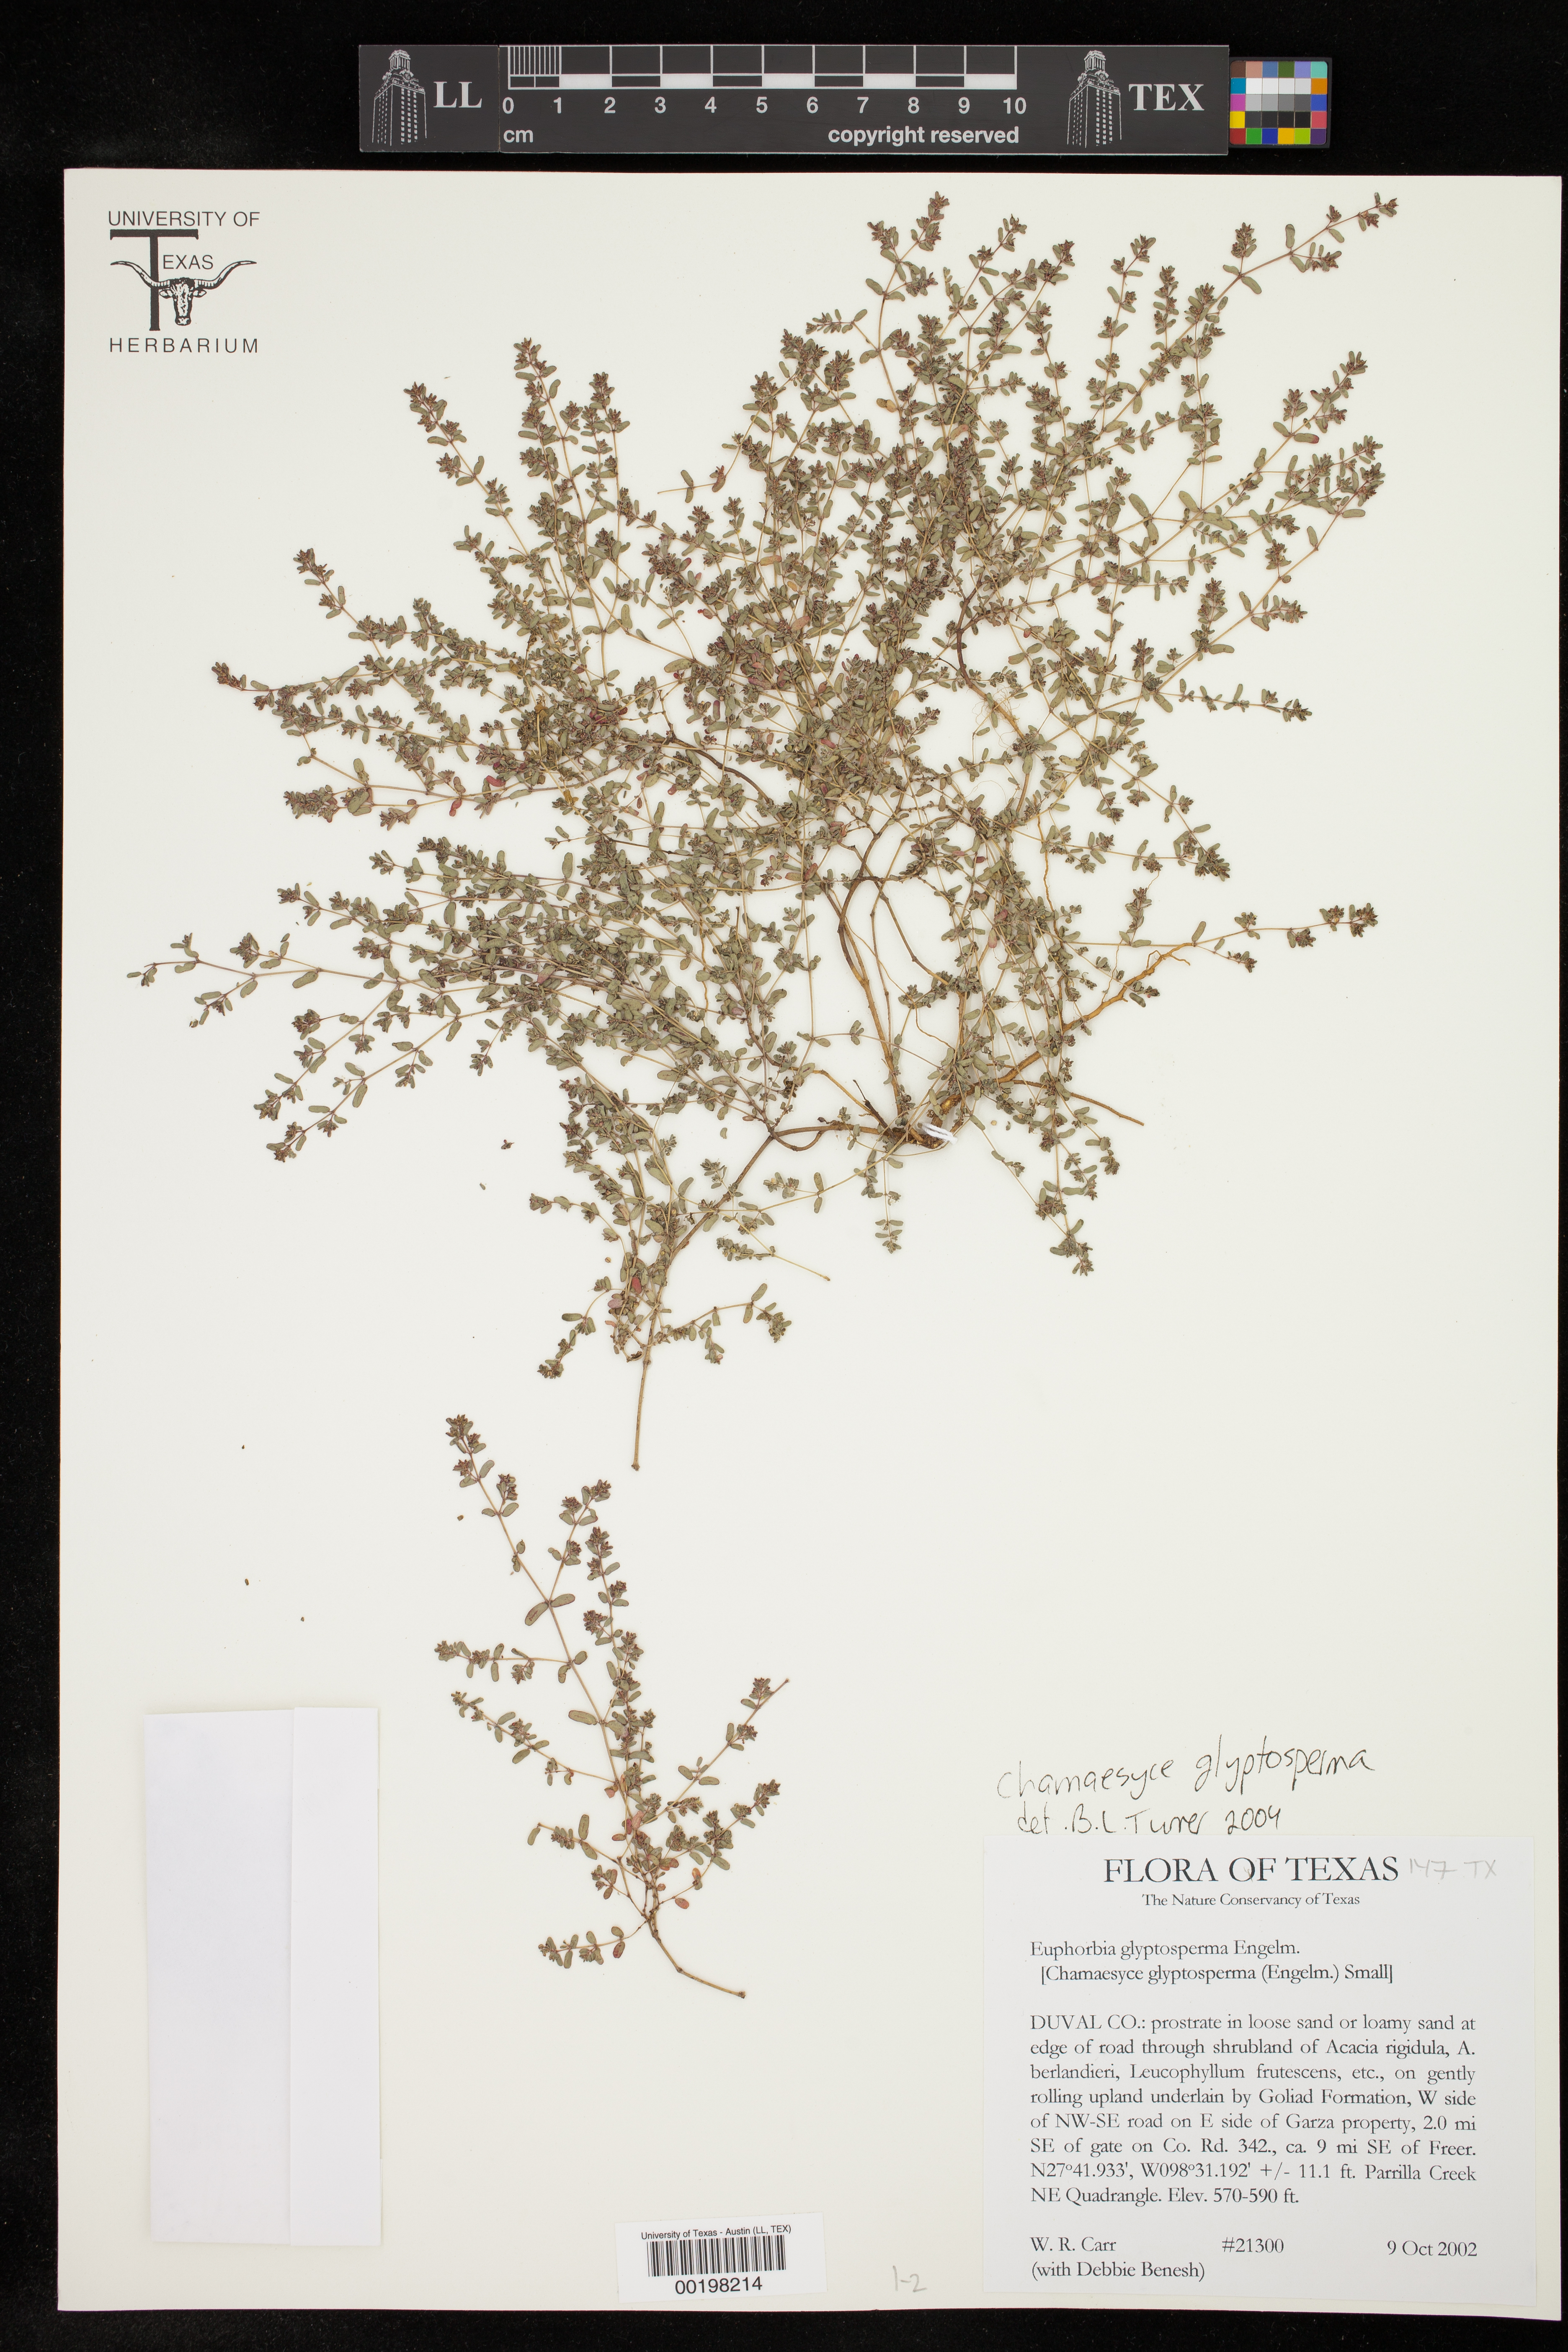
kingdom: Plantae
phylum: Tracheophyta
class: Magnoliopsida
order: Malpighiales
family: Euphorbiaceae
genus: Euphorbia
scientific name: Euphorbia glyptosperma
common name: Corrugate-seeded spurge
